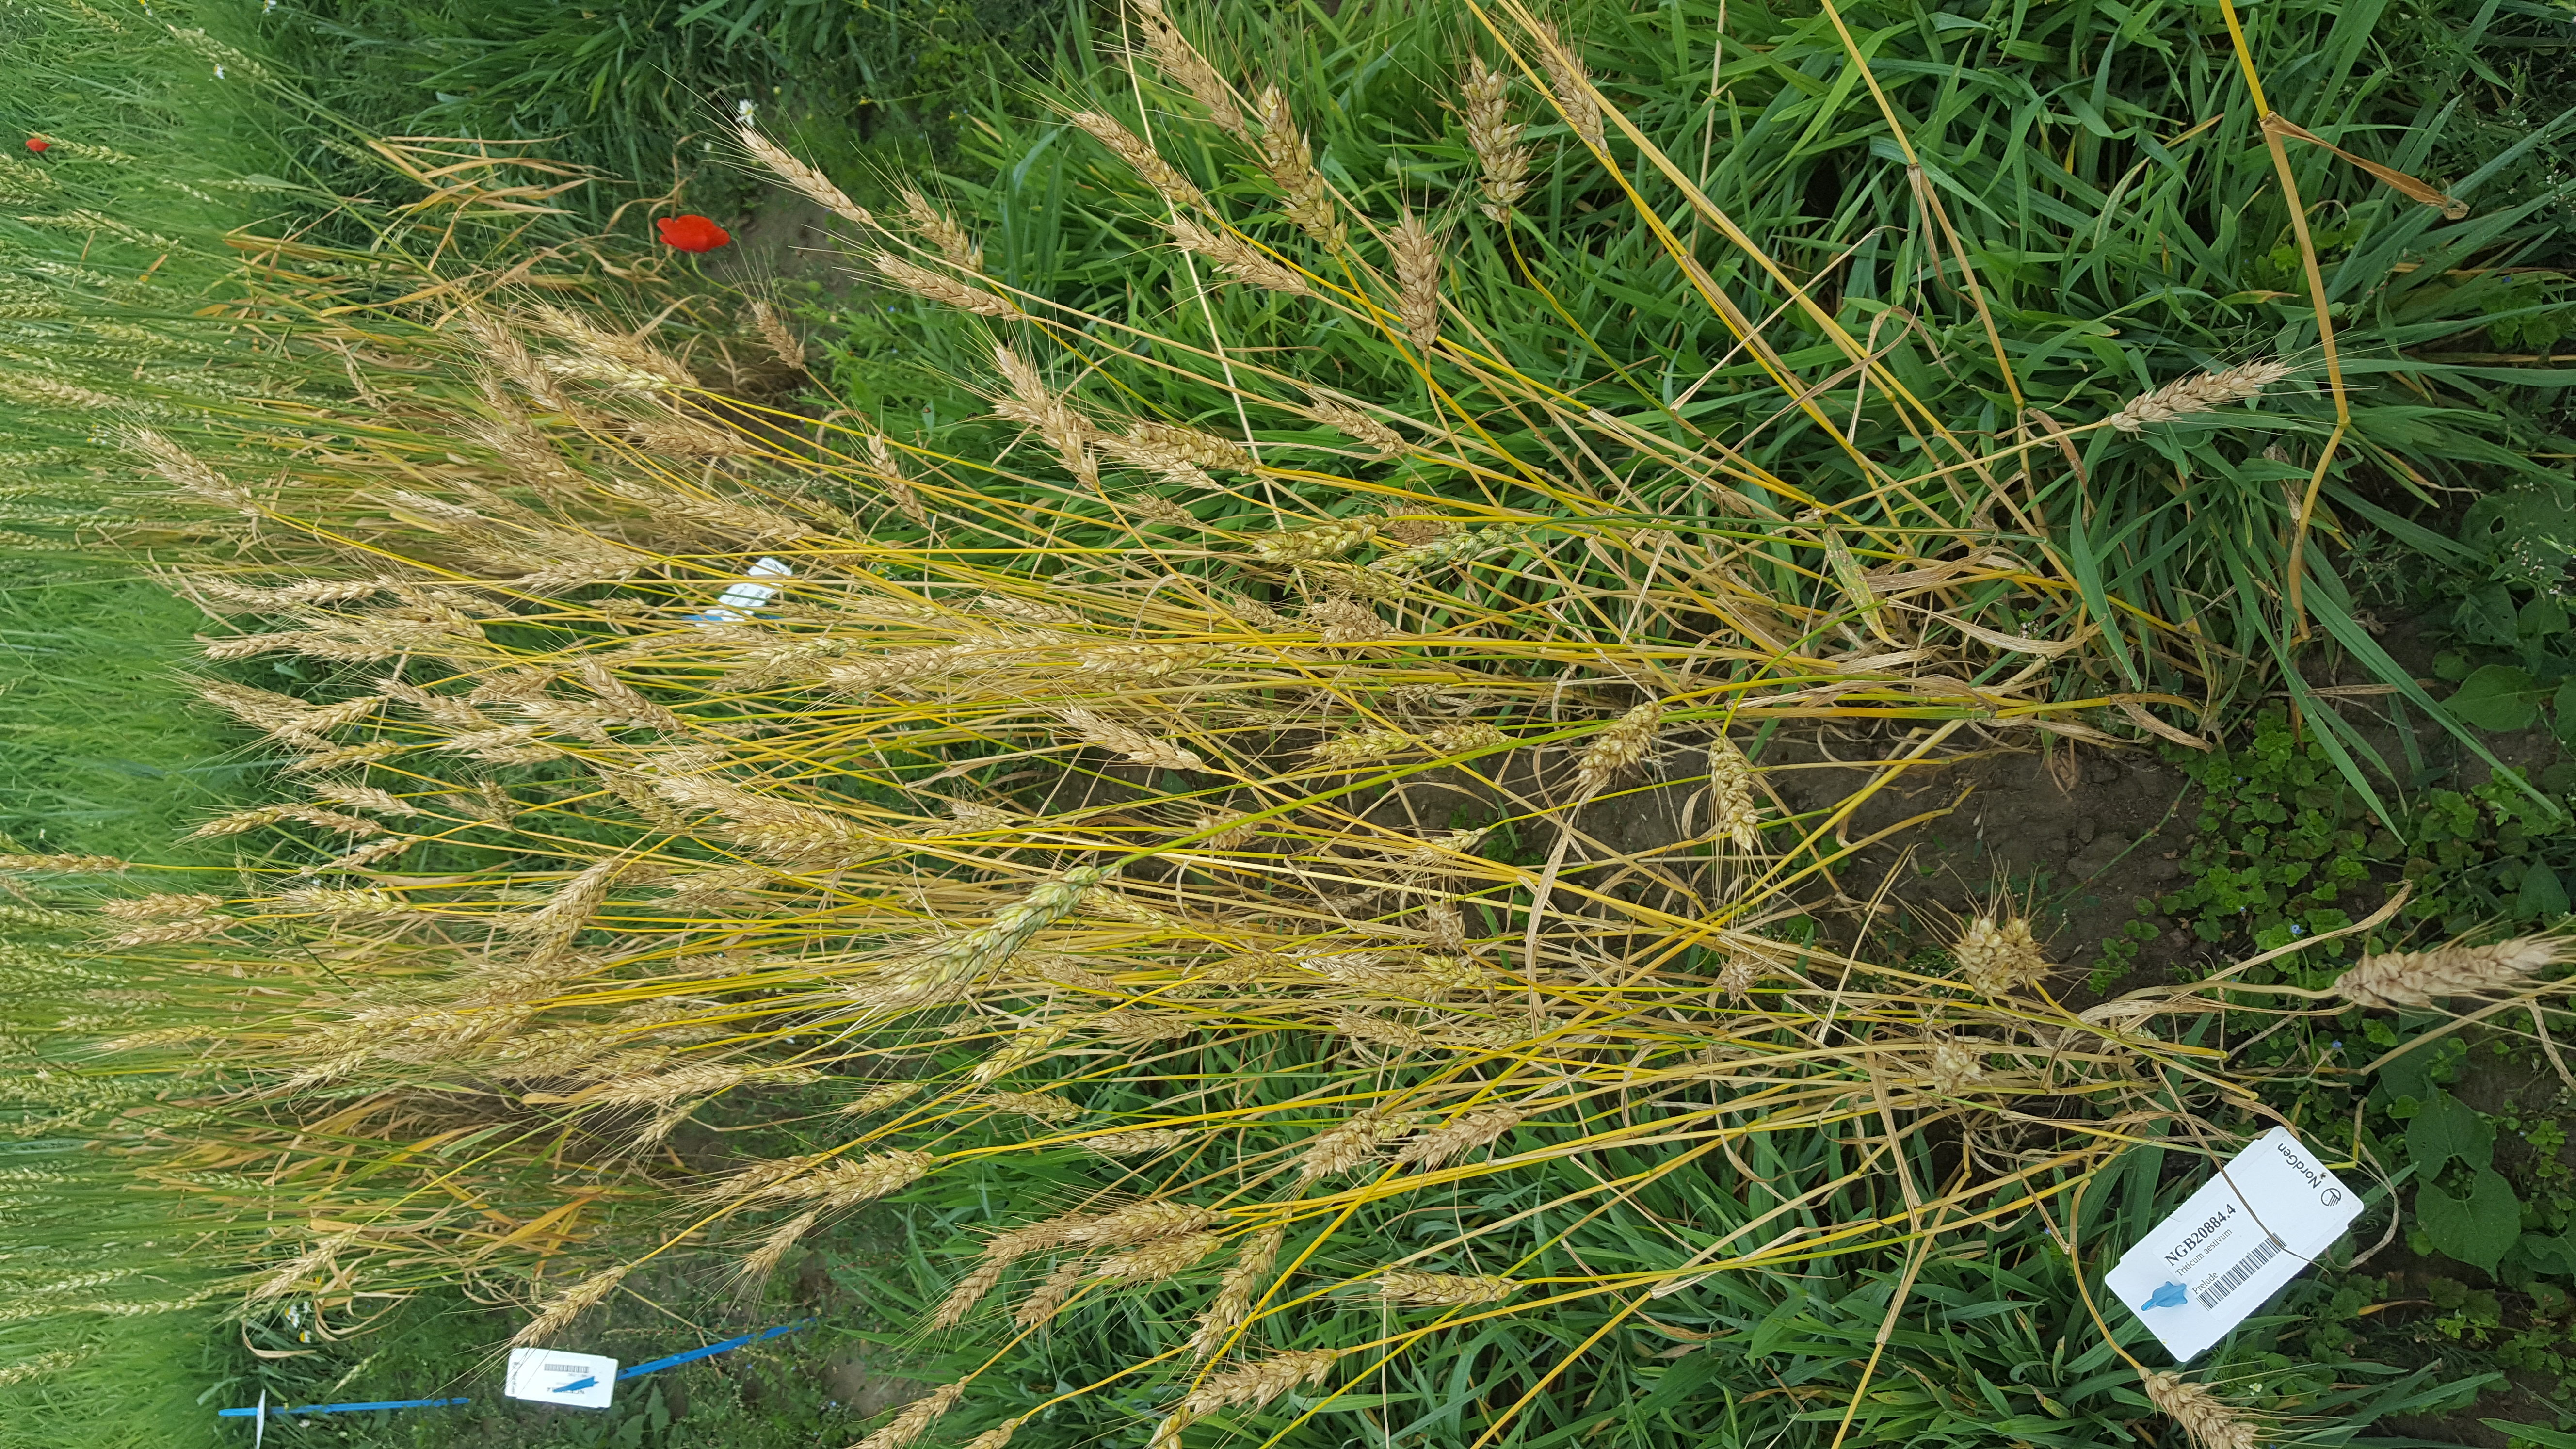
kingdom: Plantae
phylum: Tracheophyta
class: Liliopsida
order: Poales
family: Poaceae
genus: Triticum
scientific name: Triticum aestivum
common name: Common wheat
